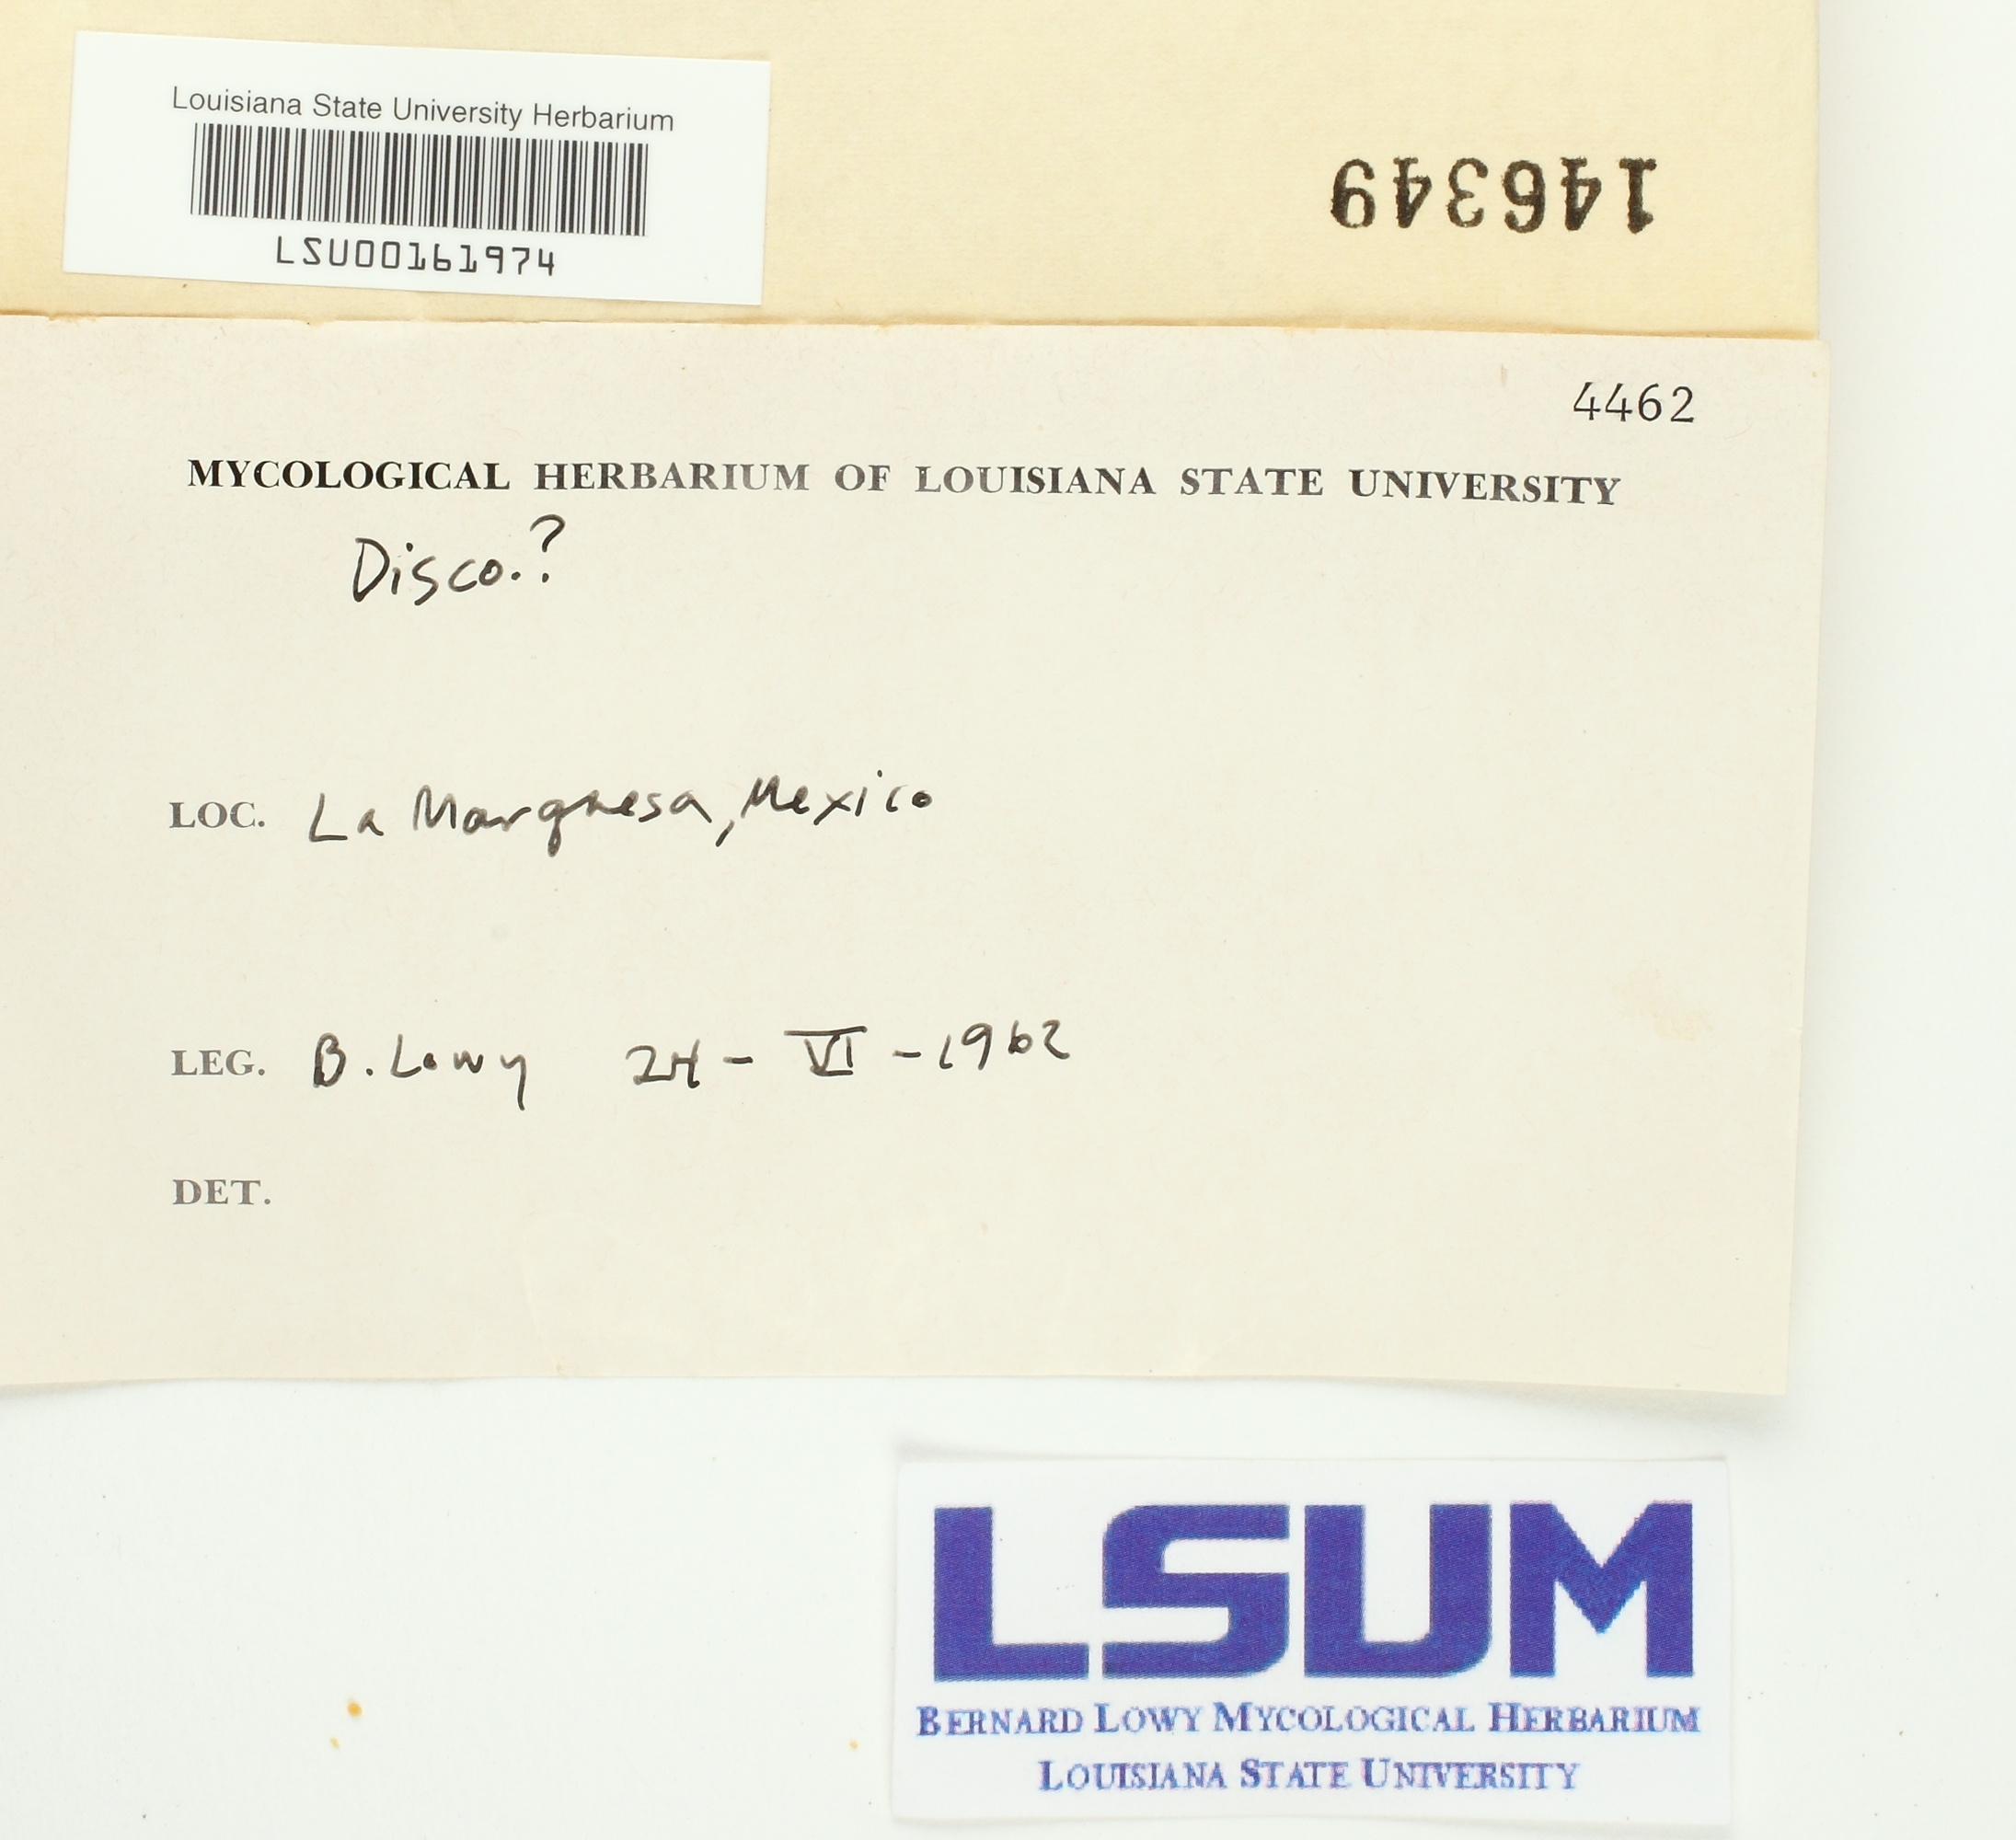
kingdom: Fungi
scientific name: Fungi
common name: Fungi
